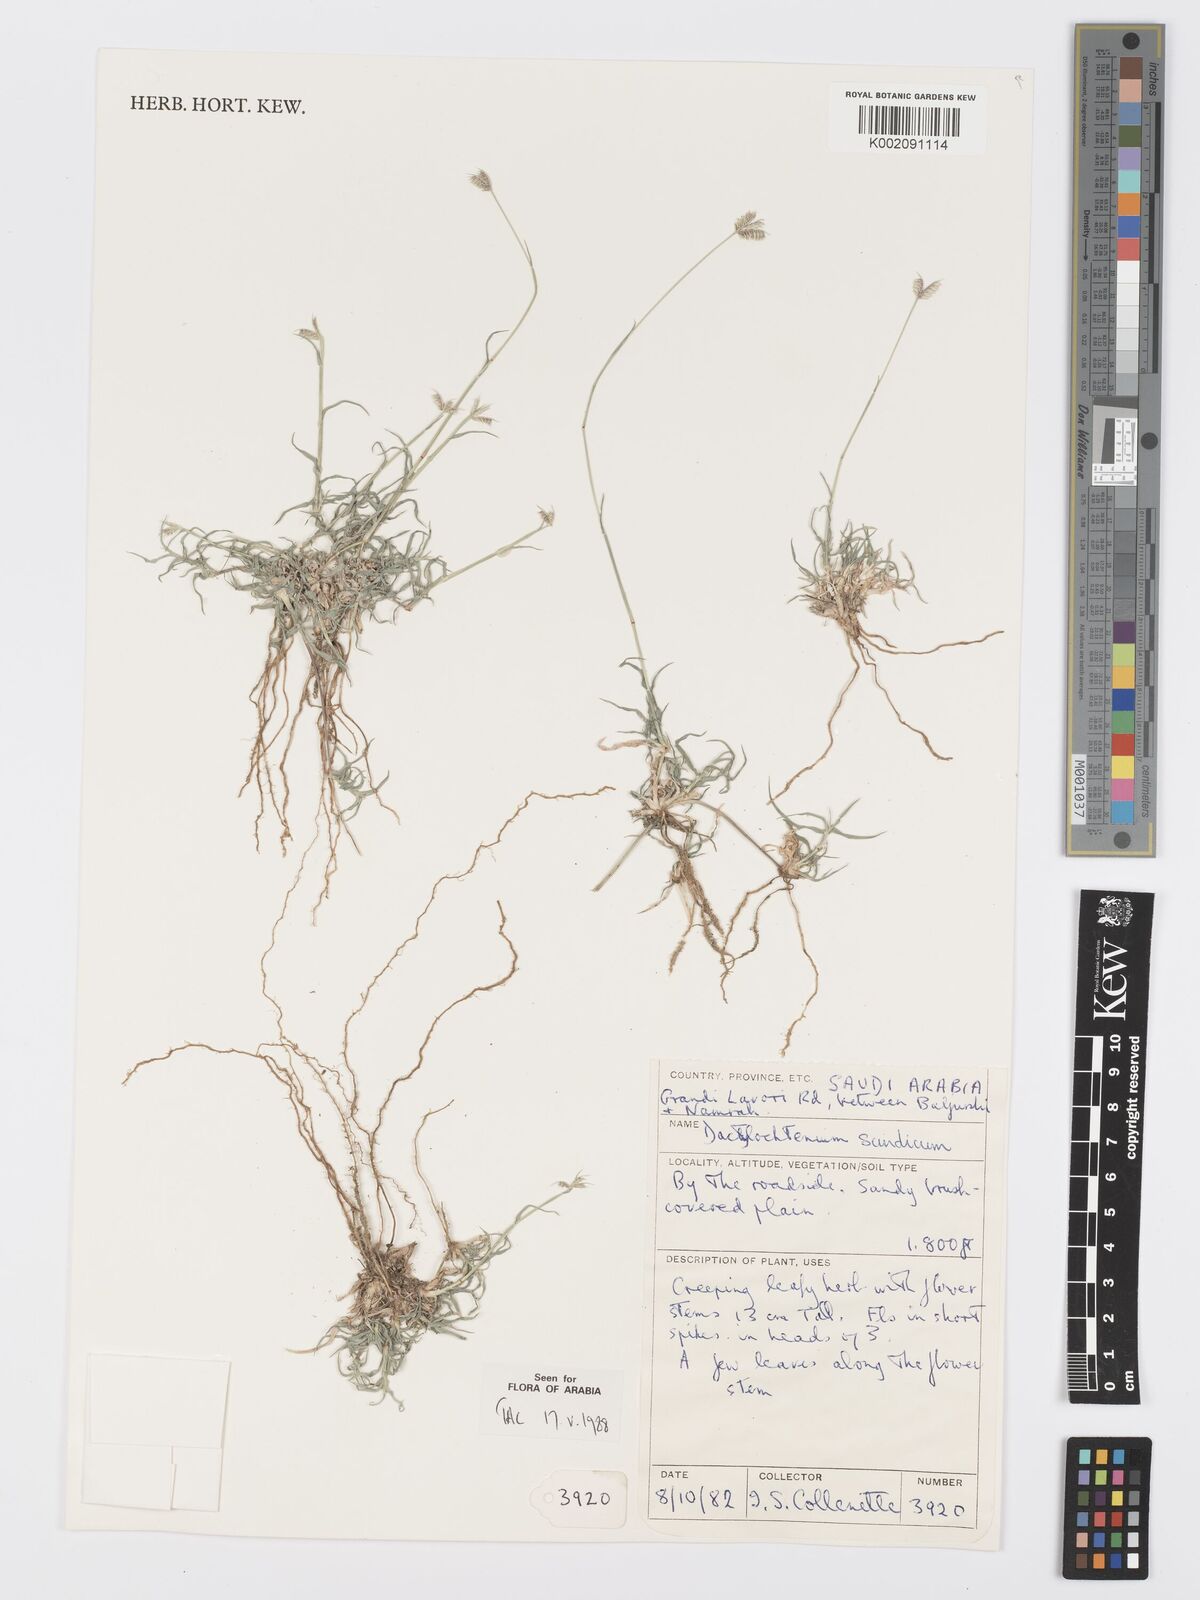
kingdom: Plantae
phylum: Tracheophyta
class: Liliopsida
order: Poales
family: Poaceae
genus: Dactyloctenium
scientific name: Dactyloctenium scindicum
